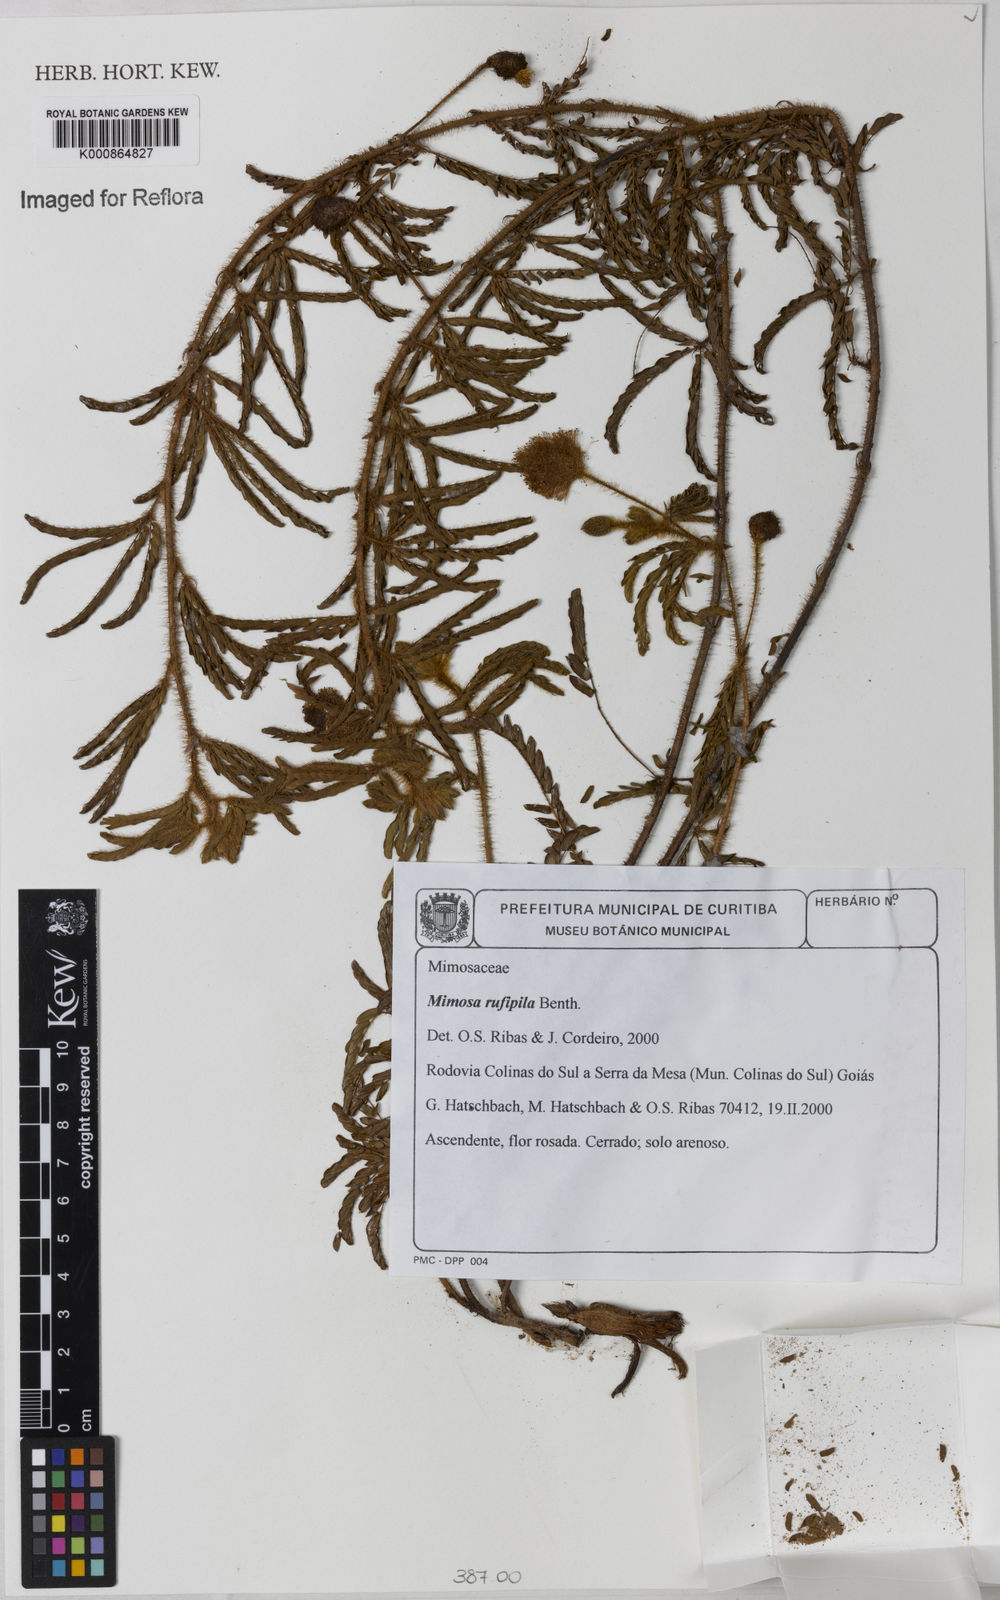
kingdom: Plantae
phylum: Tracheophyta
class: Magnoliopsida
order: Fabales
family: Fabaceae
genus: Mimosa
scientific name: Mimosa rufipila
